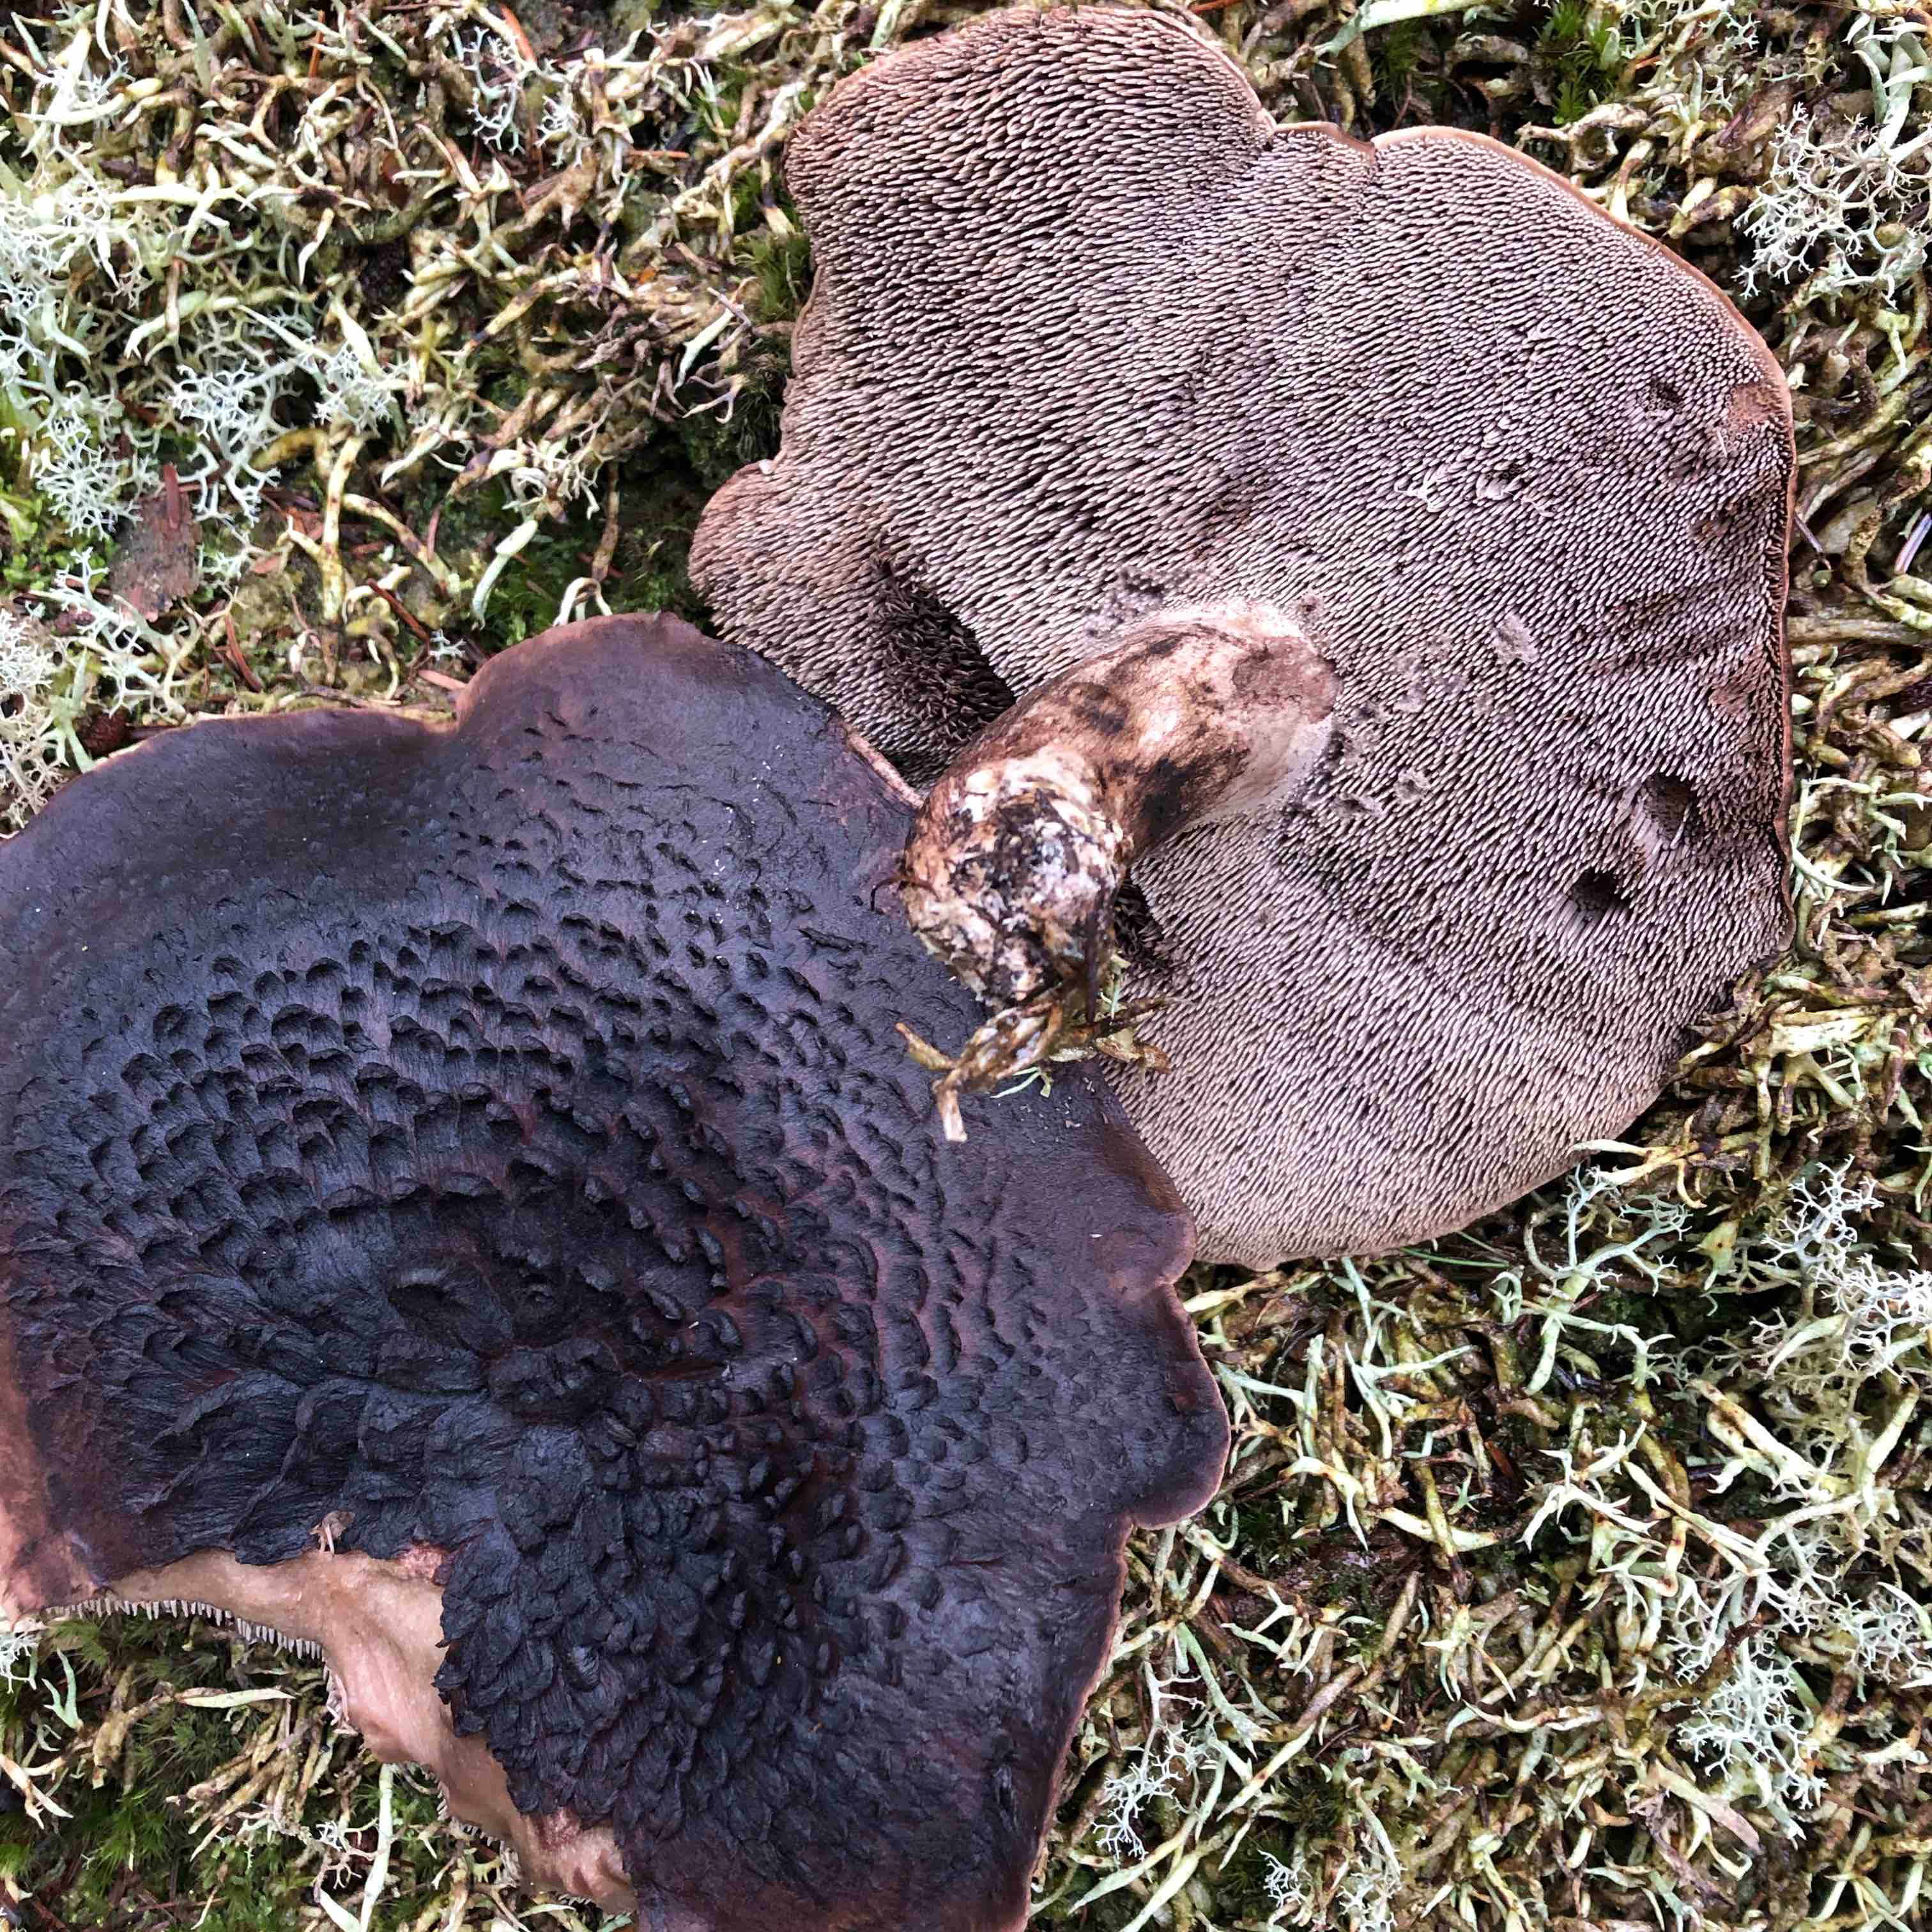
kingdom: Fungi
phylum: Basidiomycota
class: Agaricomycetes
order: Thelephorales
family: Bankeraceae
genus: Sarcodon
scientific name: Sarcodon squamosus
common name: småskællet kødpigsvamp
